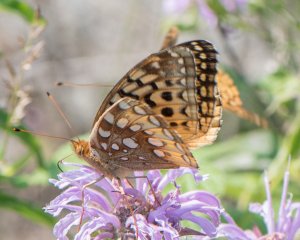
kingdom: Animalia
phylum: Arthropoda
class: Insecta
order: Lepidoptera
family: Nymphalidae
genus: Speyeria
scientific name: Speyeria cybele
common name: Great Spangled Fritillary
